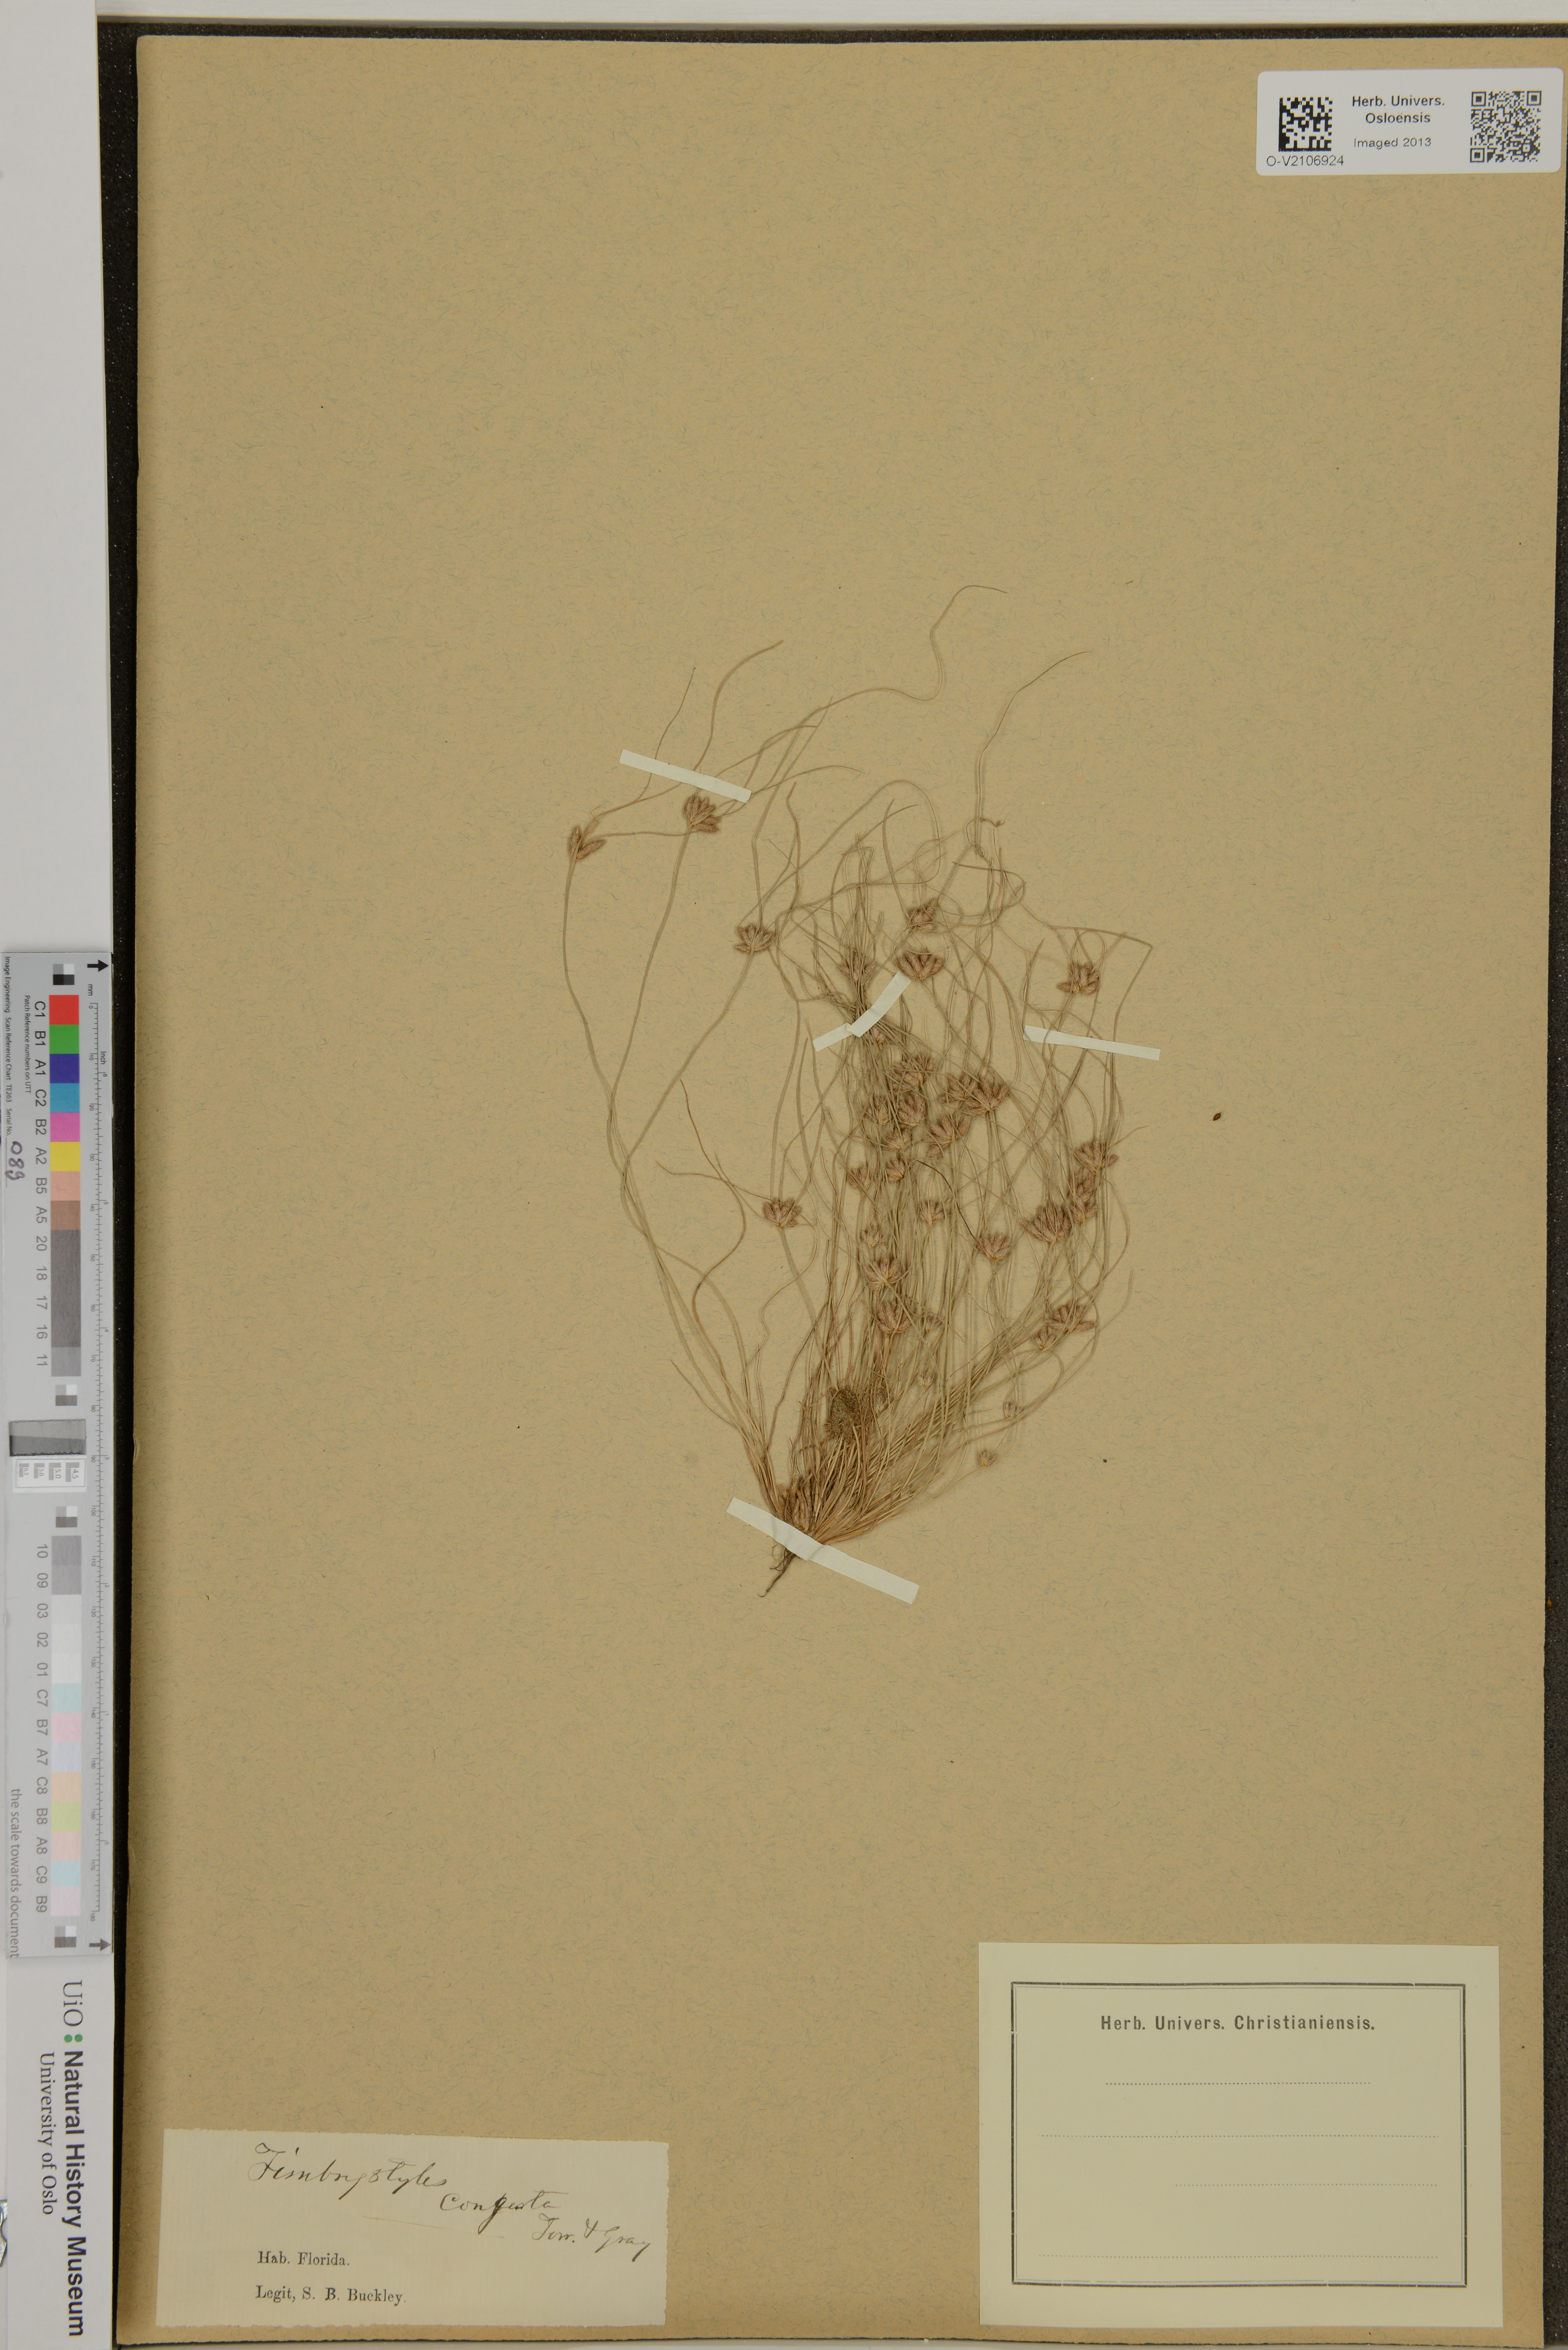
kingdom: Plantae
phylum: Tracheophyta
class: Liliopsida
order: Poales
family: Cyperaceae
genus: Fimbristylis
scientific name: Fimbristylis vahlii
